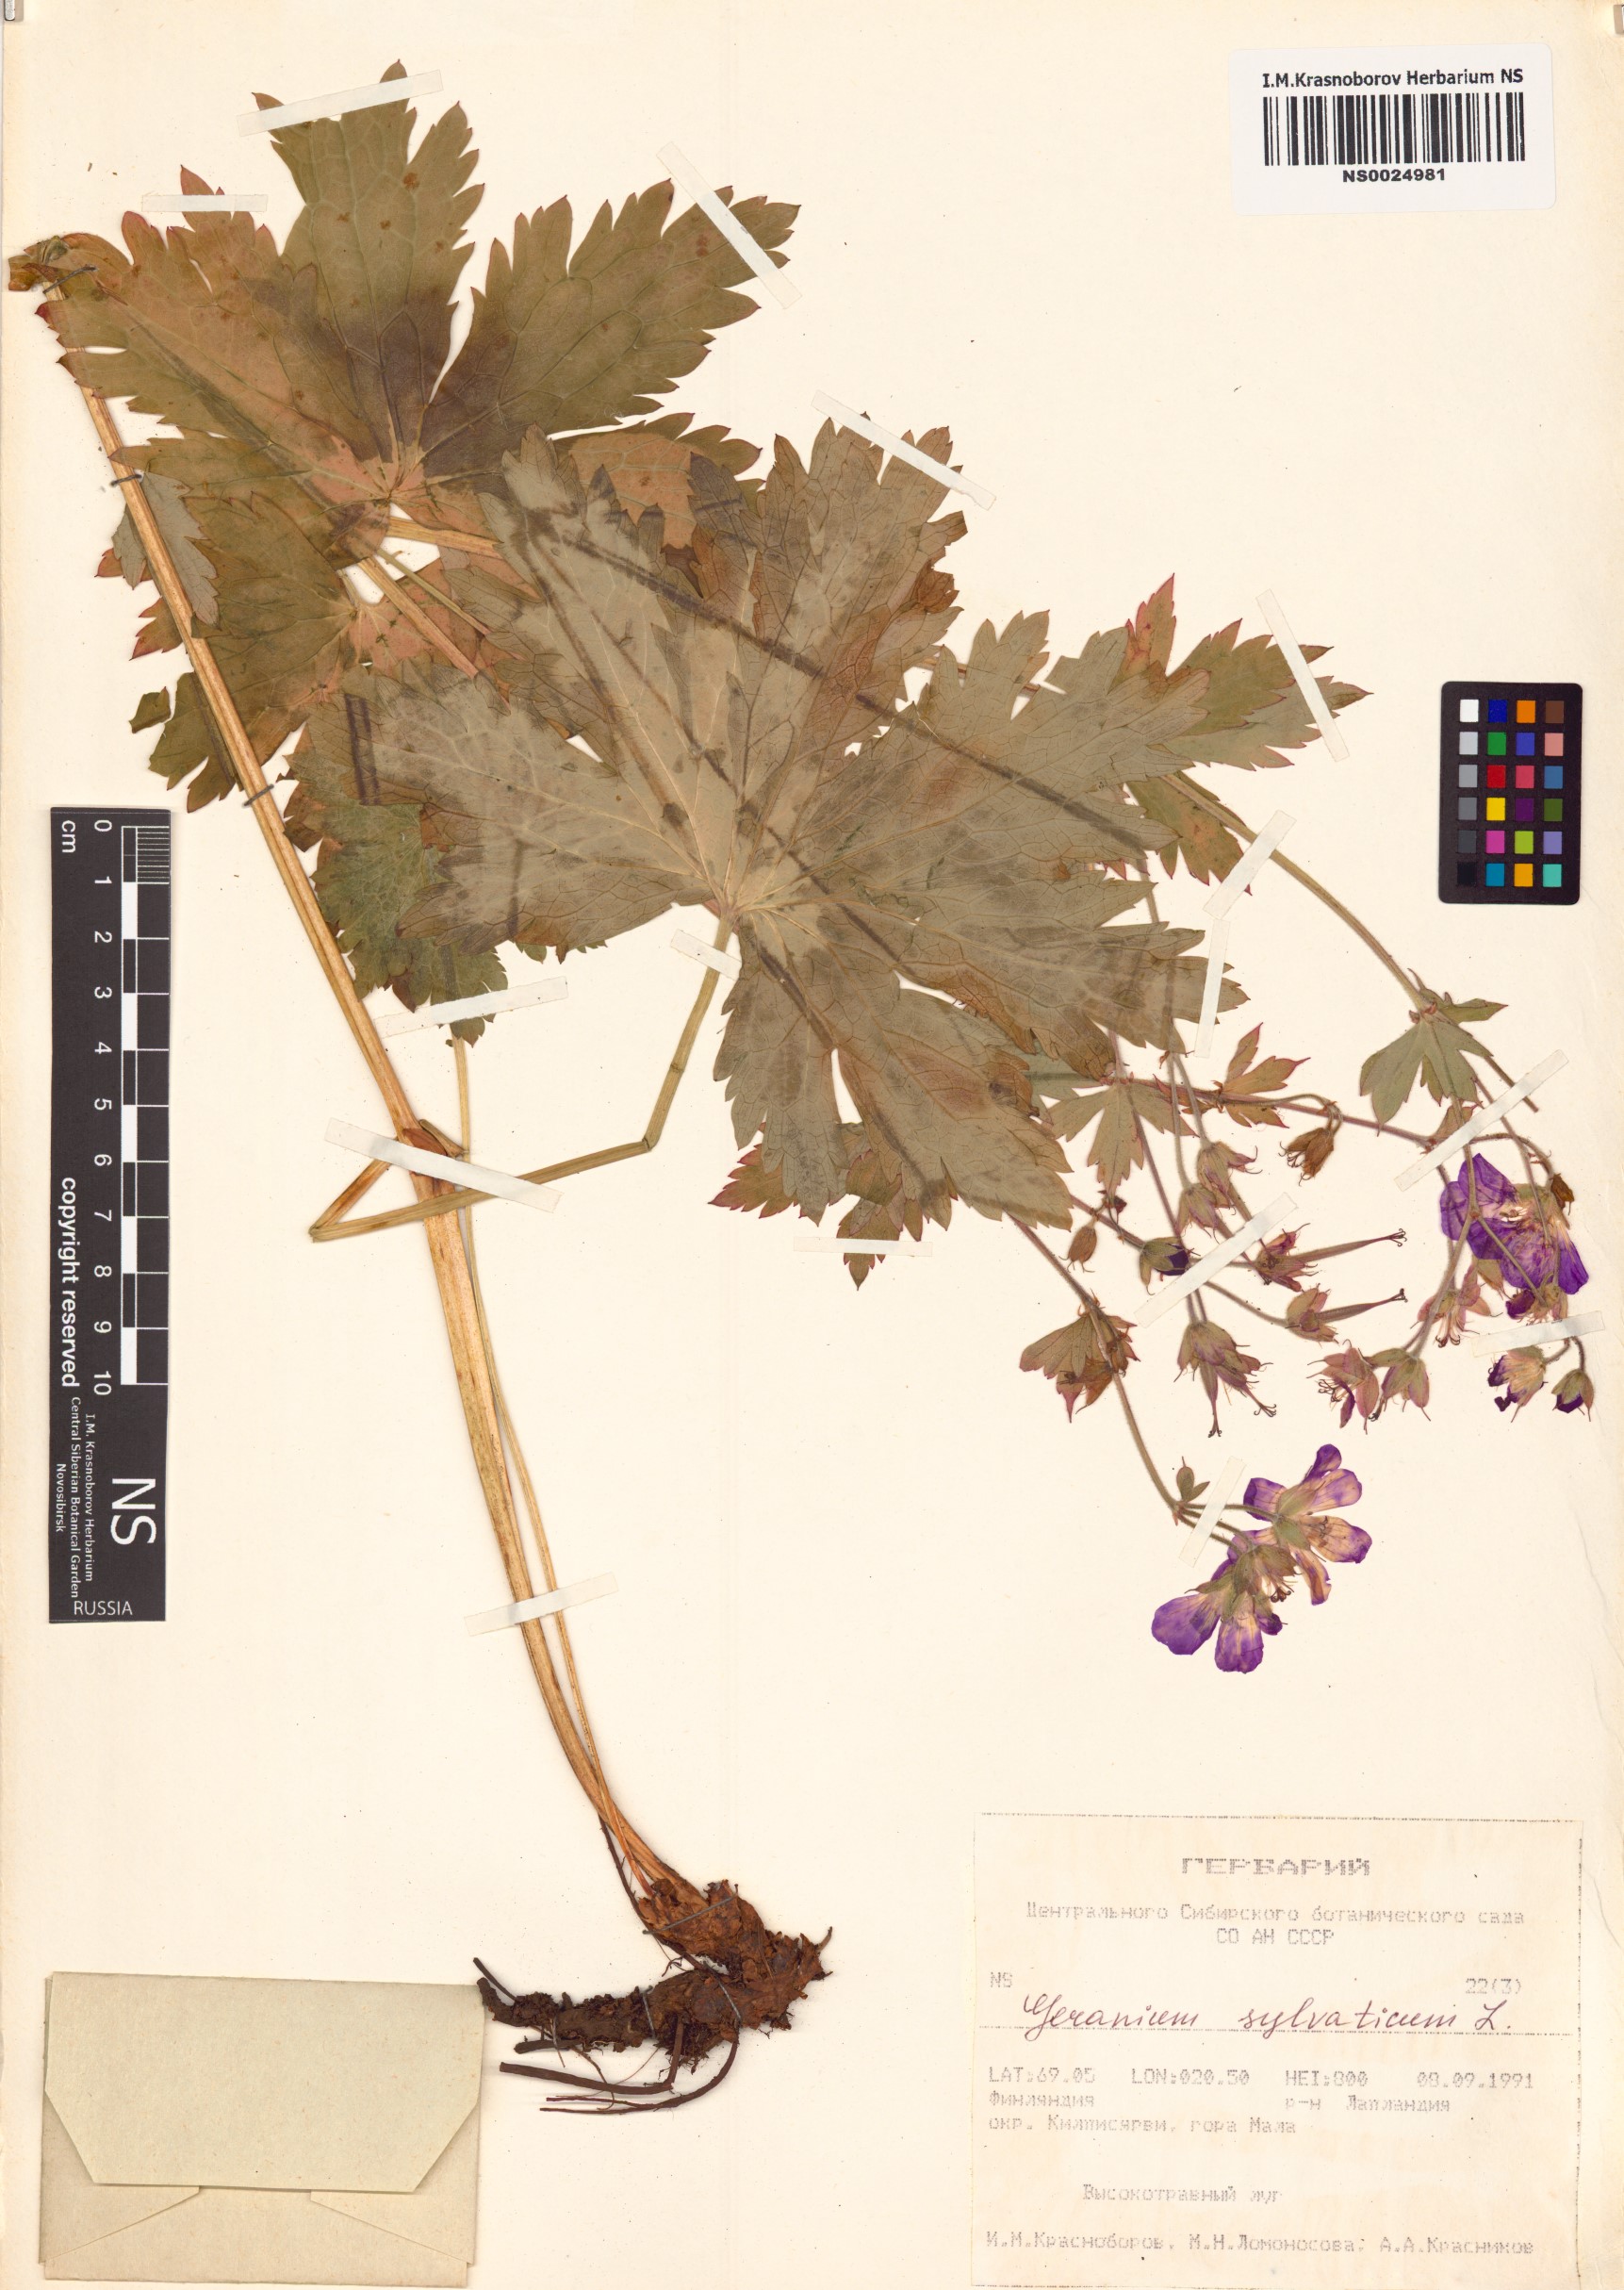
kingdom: Plantae
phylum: Tracheophyta
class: Magnoliopsida
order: Geraniales
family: Geraniaceae
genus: Geranium
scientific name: Geranium sylvaticum
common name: Wood crane's-bill
